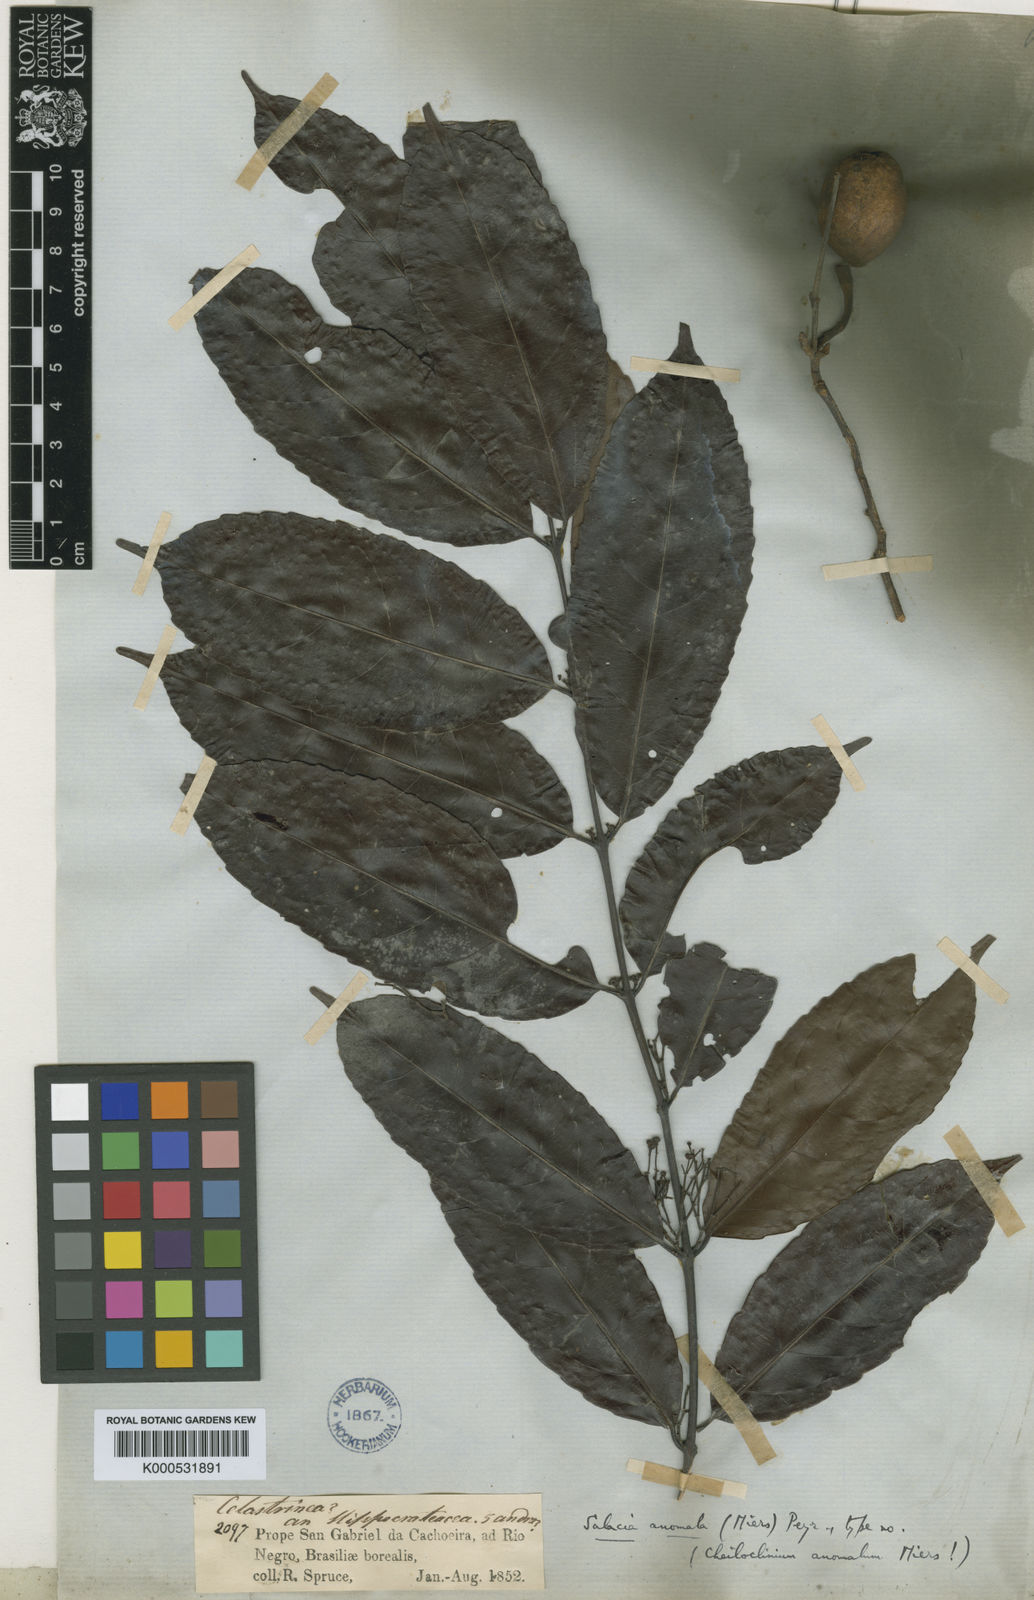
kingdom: Plantae
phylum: Tracheophyta
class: Magnoliopsida
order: Celastrales
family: Celastraceae
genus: Cheiloclinium
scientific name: Cheiloclinium anomalum
